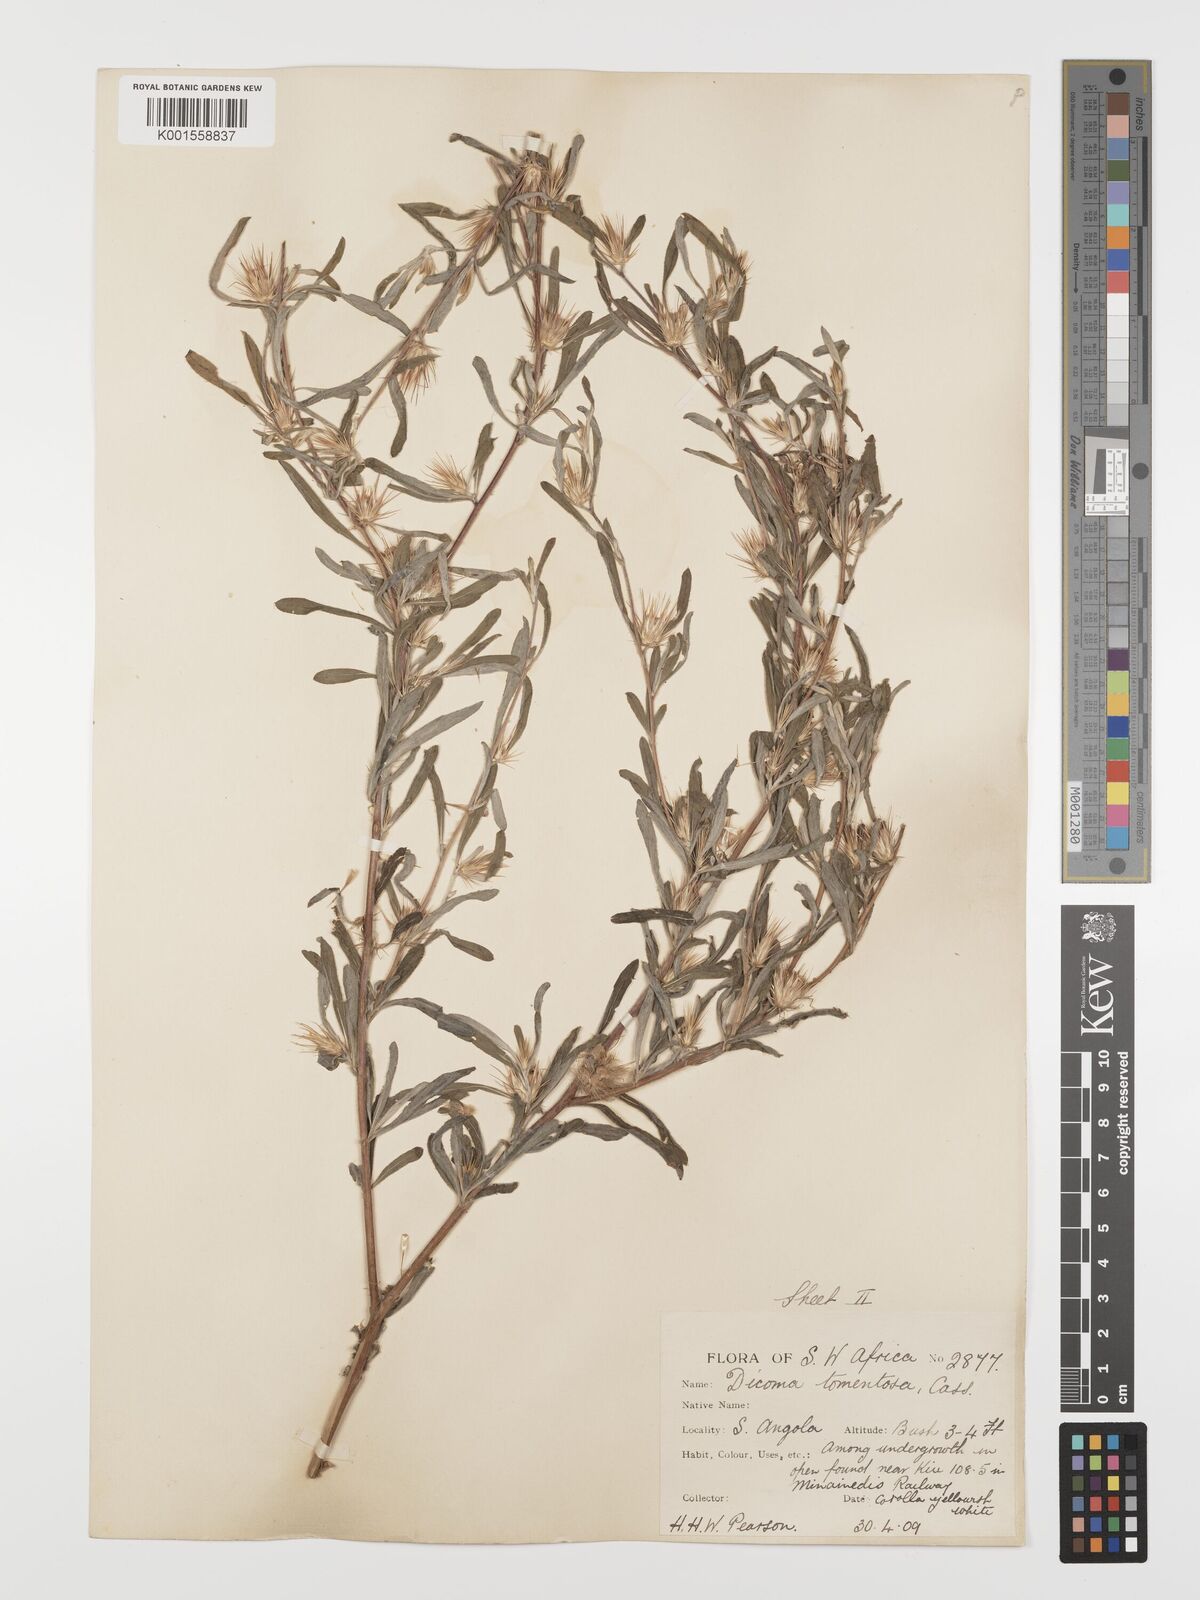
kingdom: Plantae
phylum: Tracheophyta
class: Magnoliopsida
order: Asterales
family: Asteraceae
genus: Dicoma
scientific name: Dicoma tomentosa
